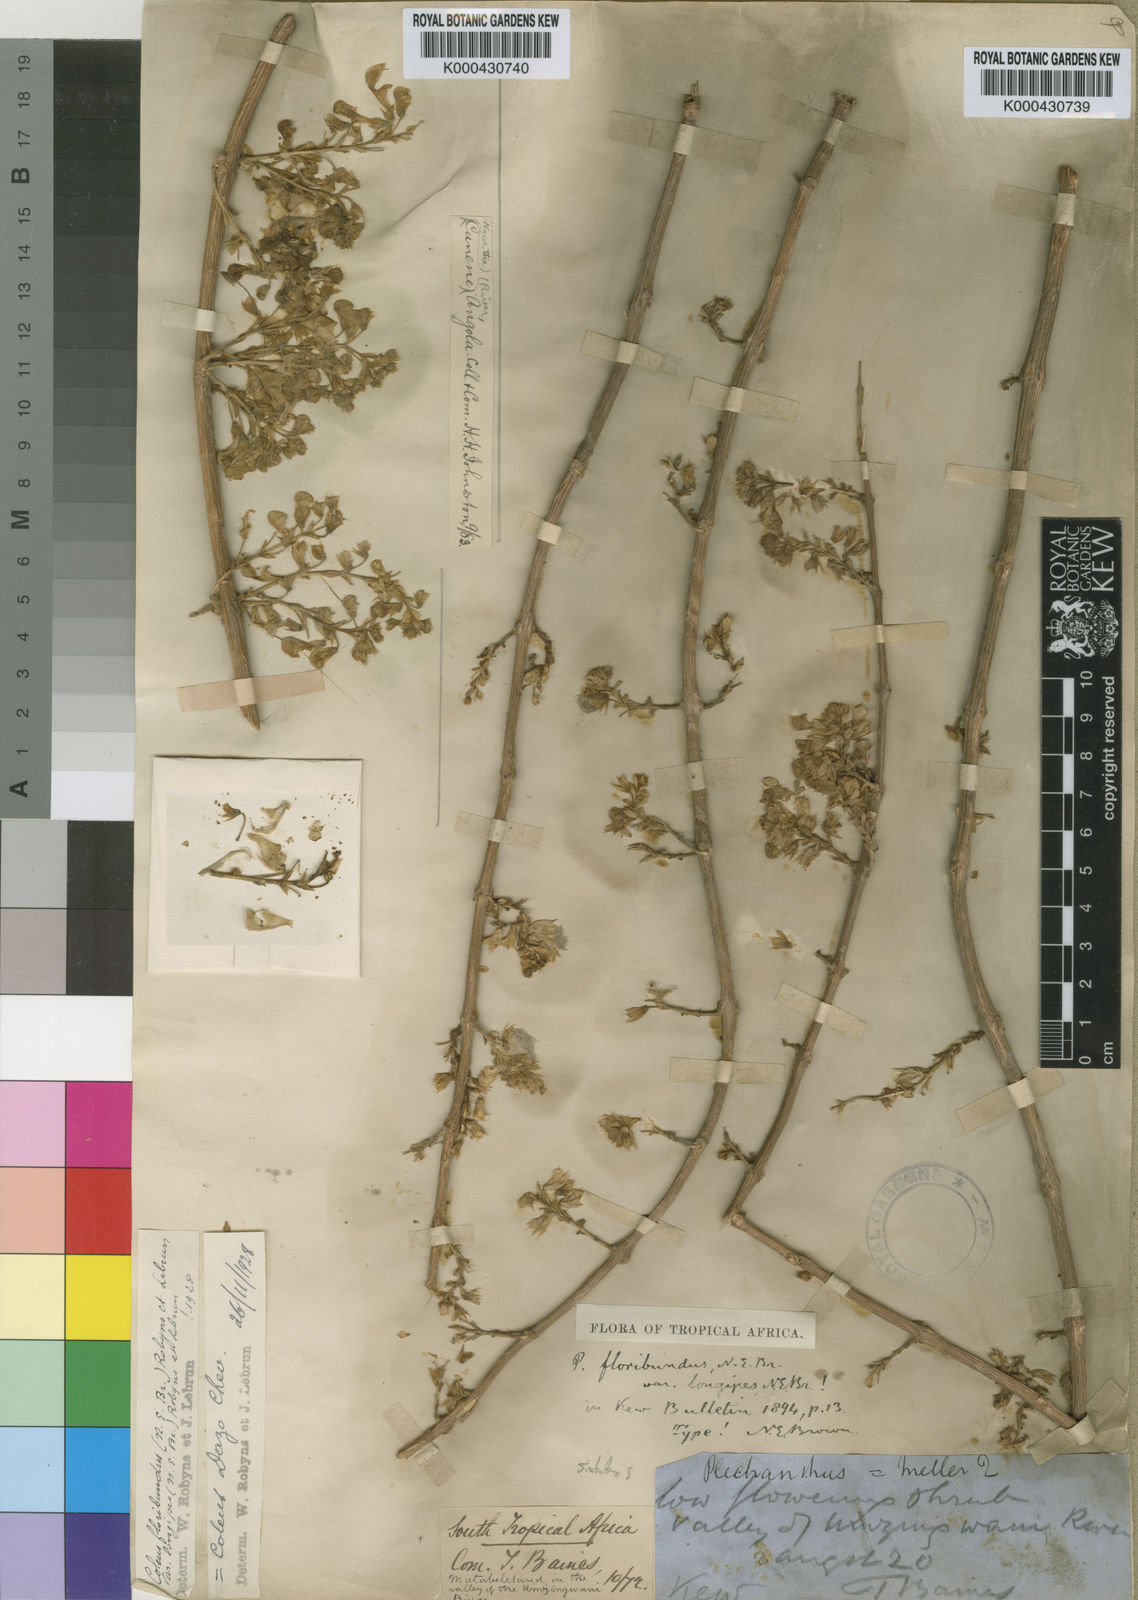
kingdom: Plantae
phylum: Tracheophyta
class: Magnoliopsida
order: Lamiales
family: Lamiaceae
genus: Coleus
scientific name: Coleus esculentus
